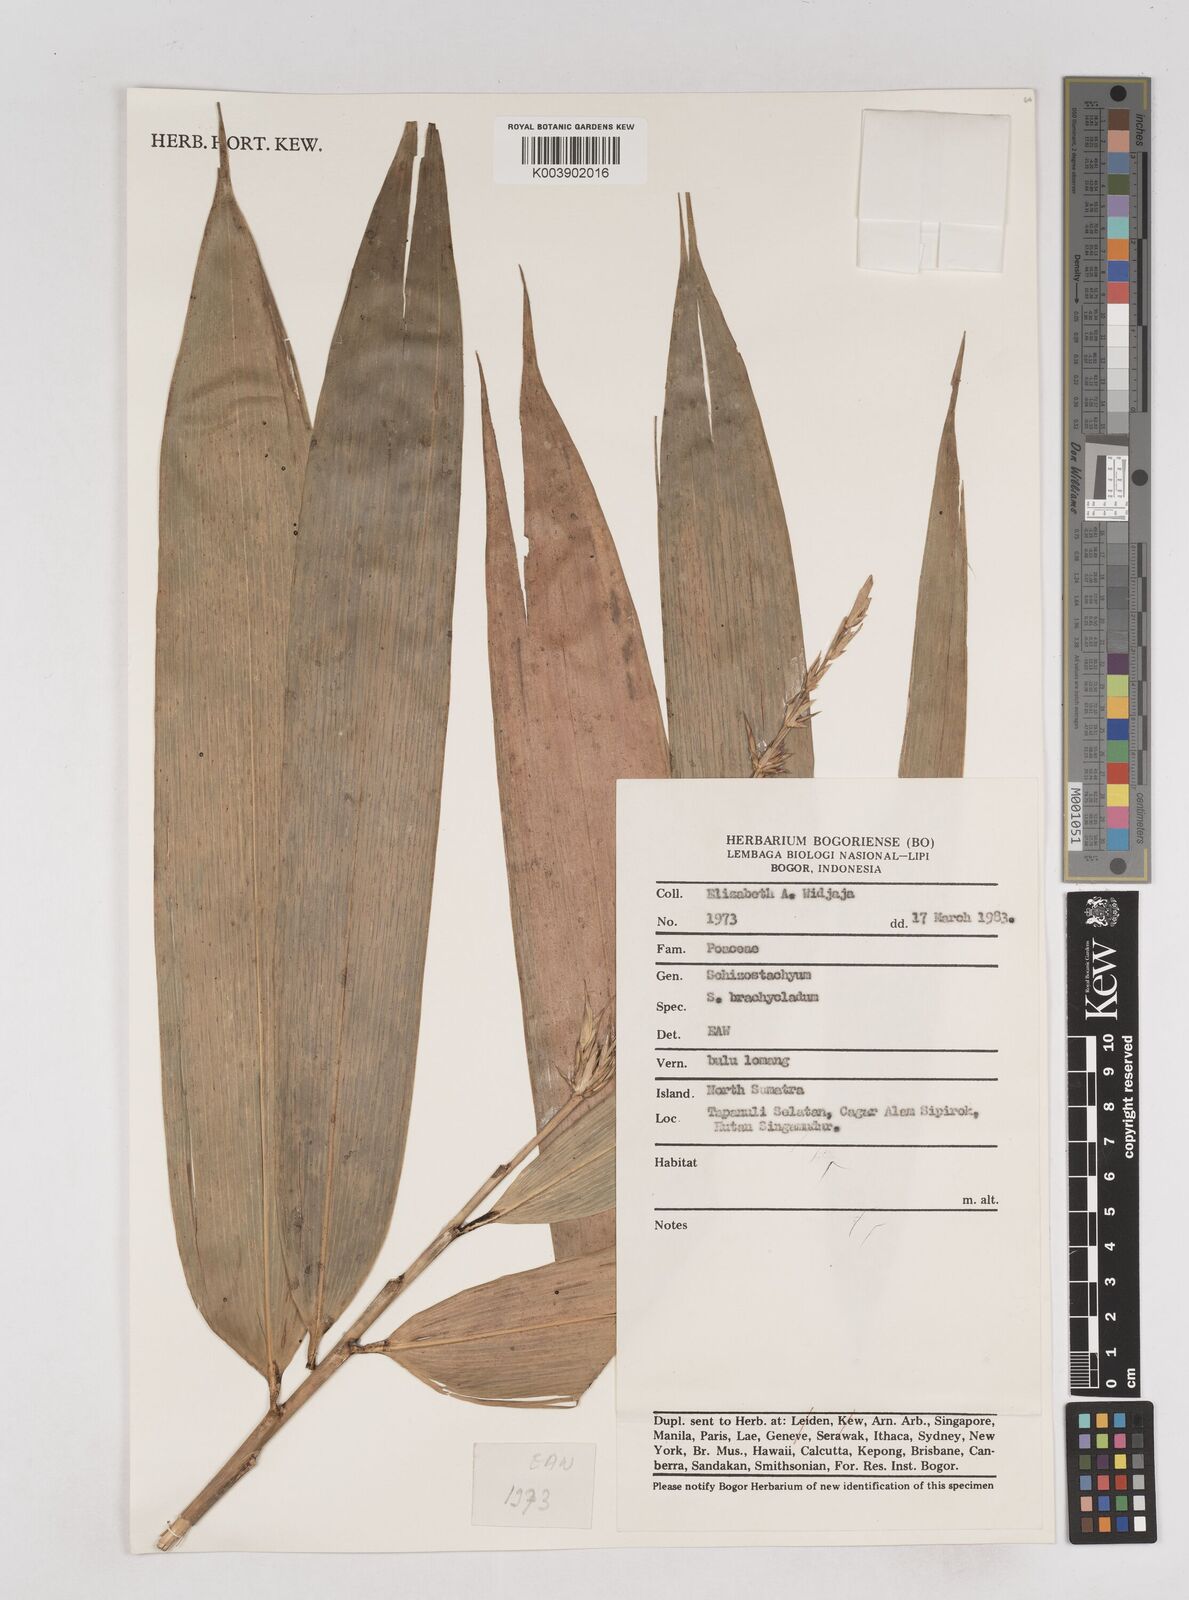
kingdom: Plantae
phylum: Tracheophyta
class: Liliopsida
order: Poales
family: Poaceae
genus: Schizostachyum
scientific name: Schizostachyum brachycladum
